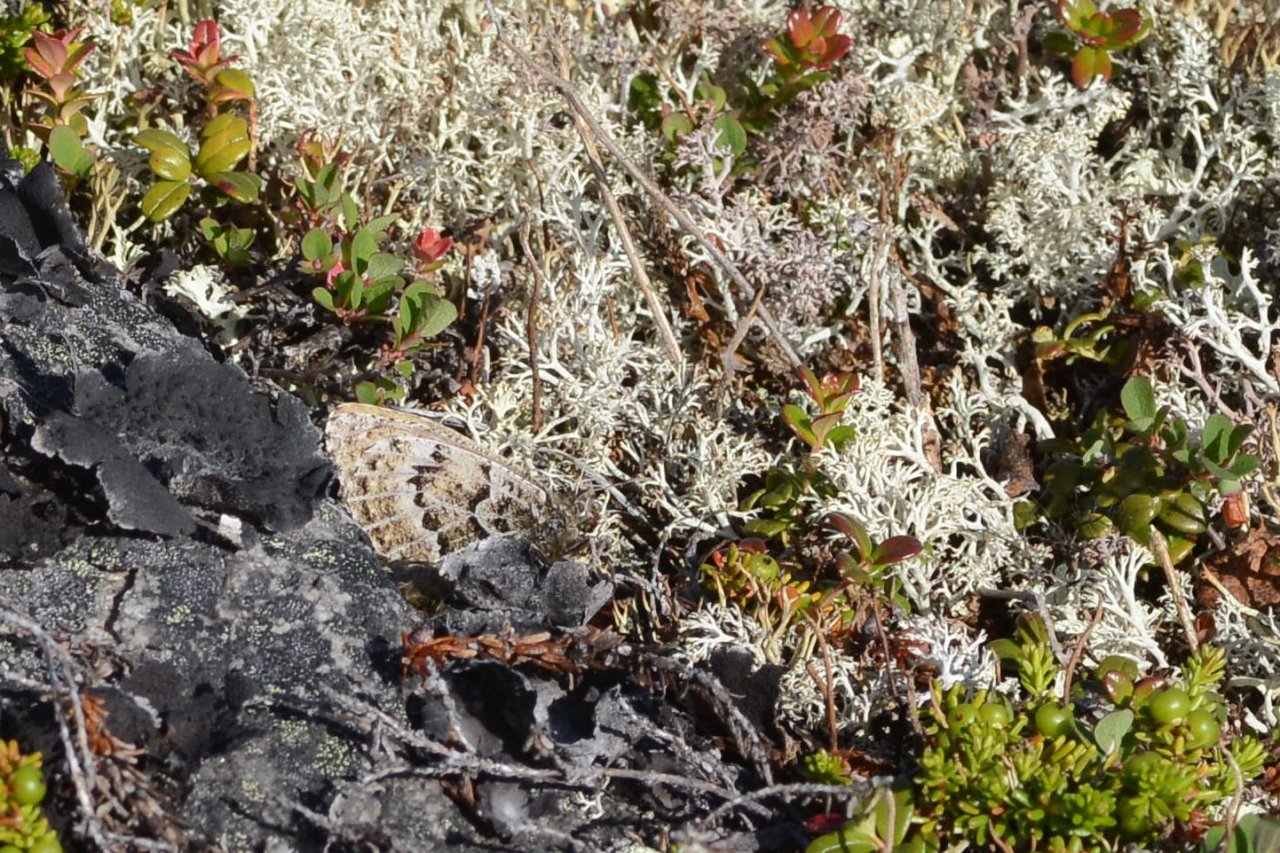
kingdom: Animalia
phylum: Arthropoda
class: Insecta
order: Lepidoptera
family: Nymphalidae
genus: Oeneis
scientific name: Oeneis bore
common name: White-veined Arctic
